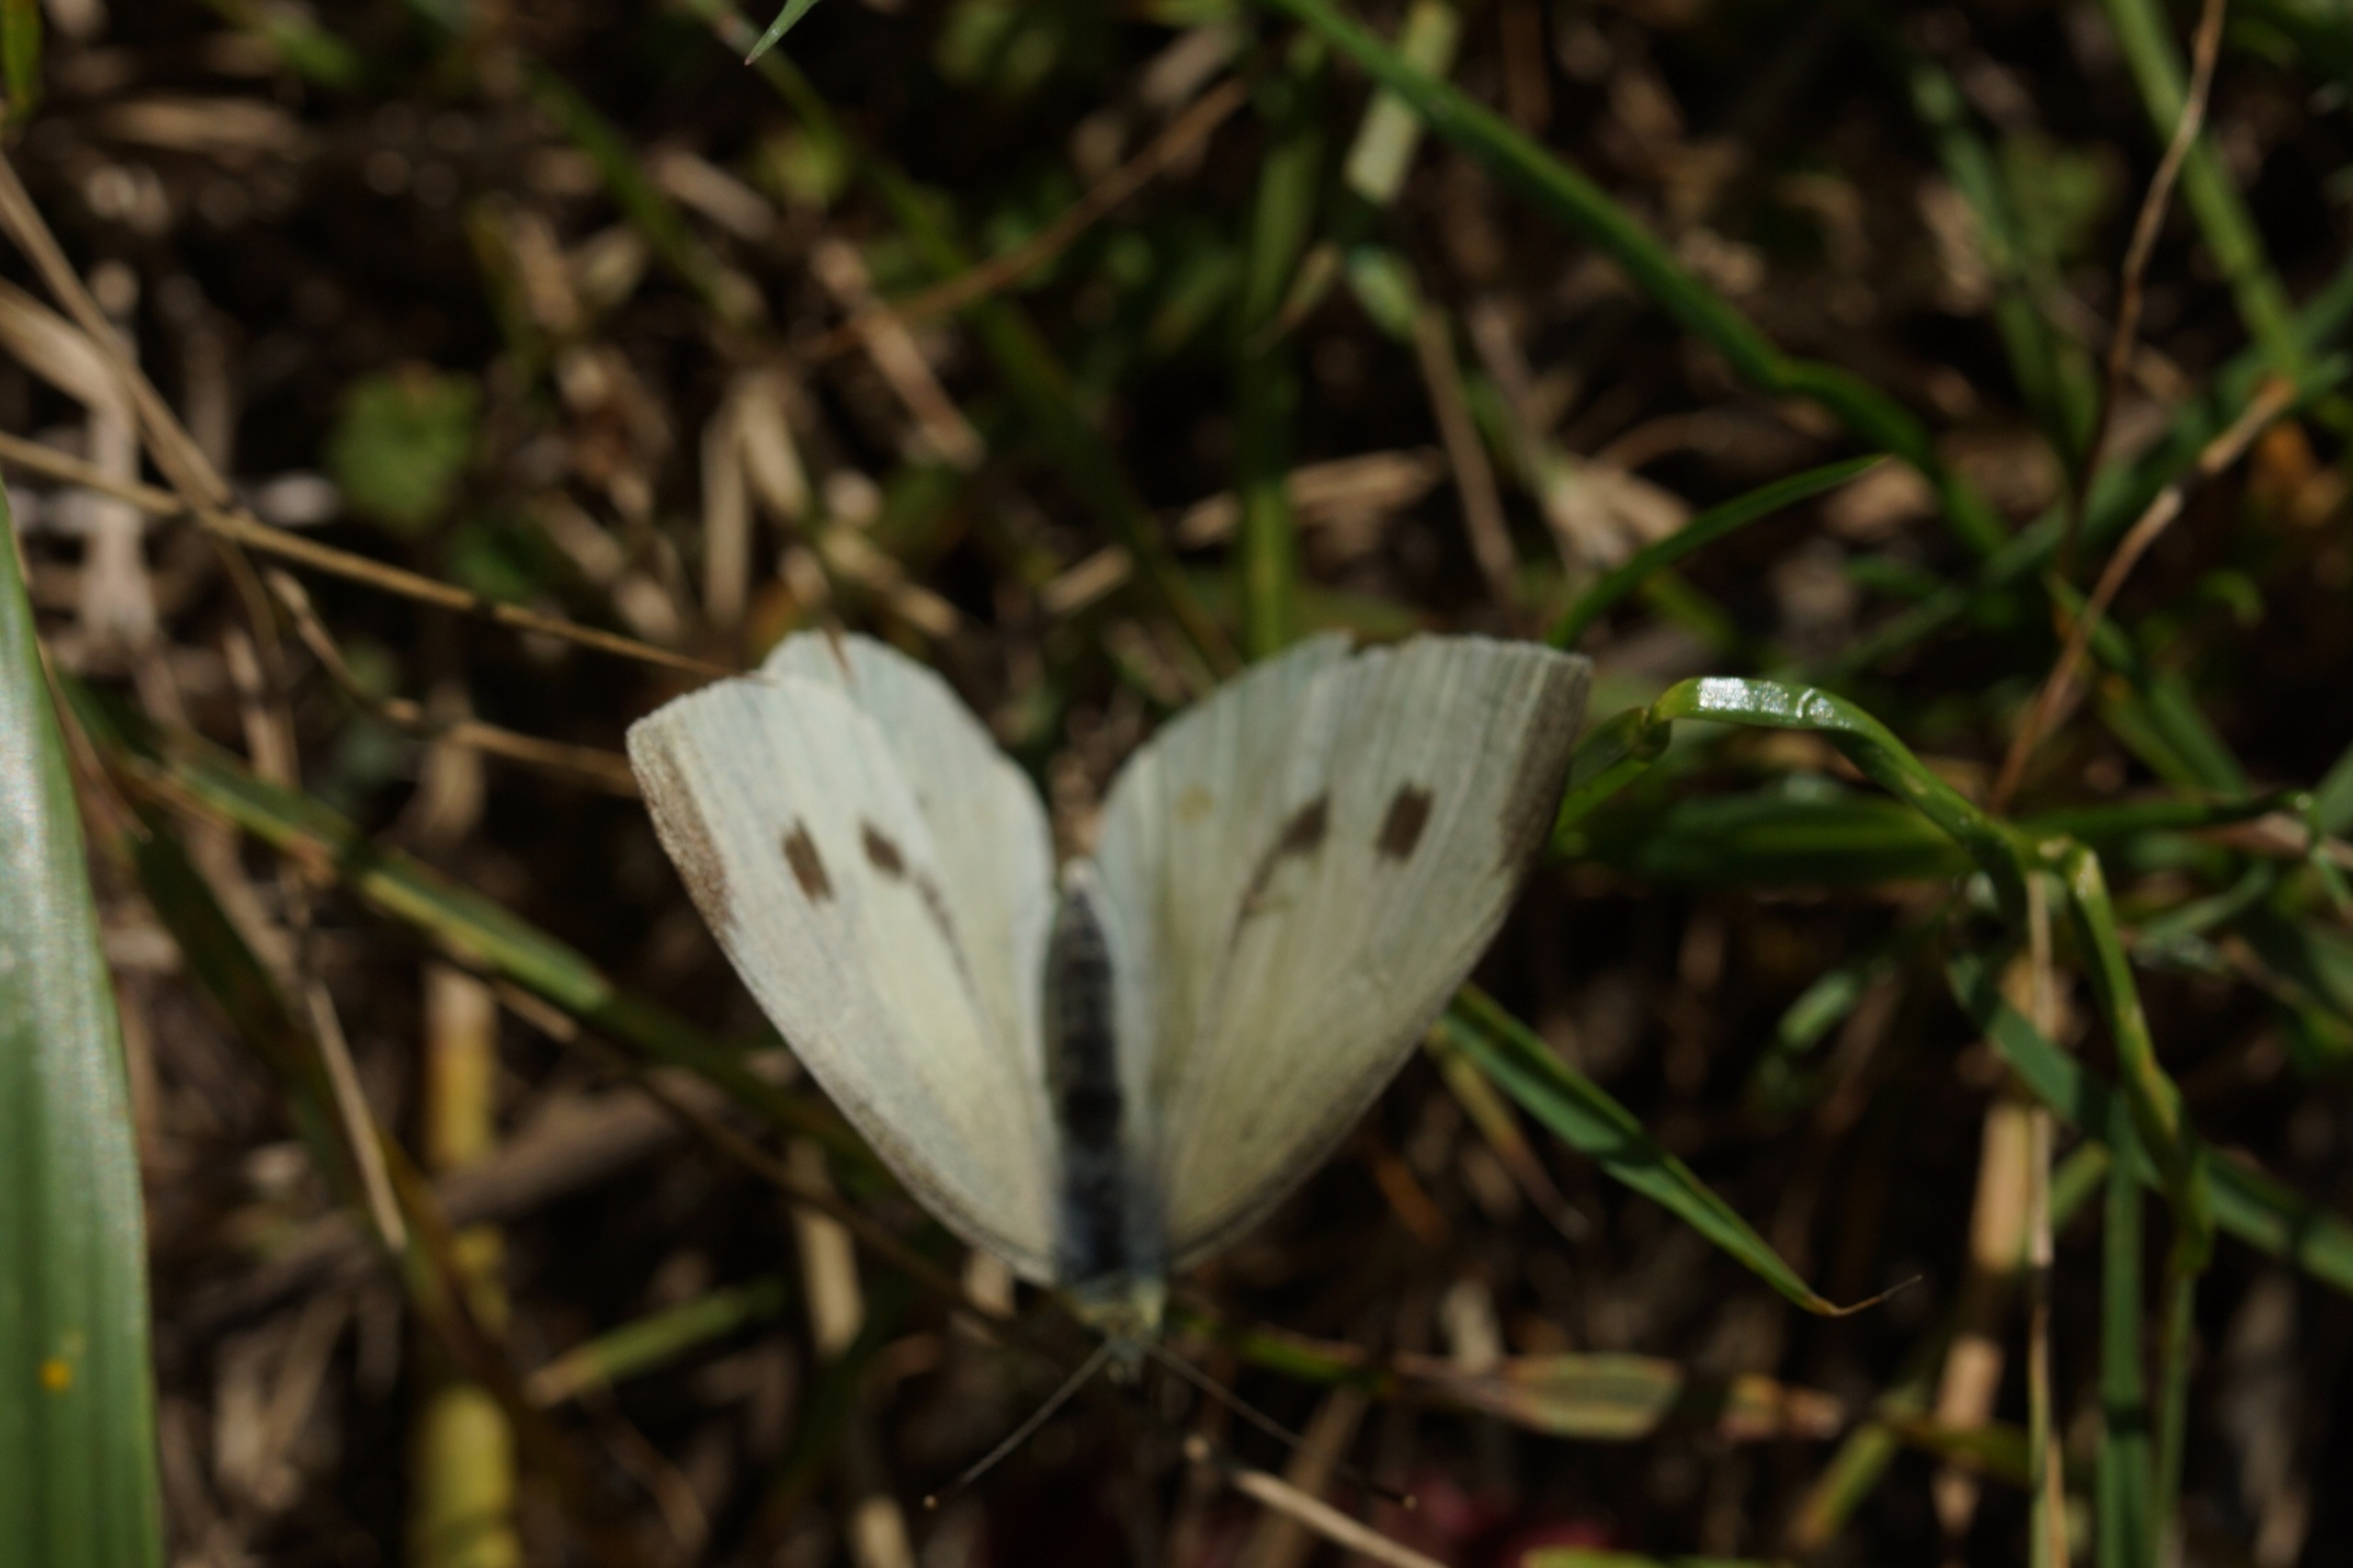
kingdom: Animalia
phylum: Arthropoda
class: Insecta
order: Lepidoptera
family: Pieridae
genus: Pieris
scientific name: Pieris rapae
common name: Lille kålsommerfugl
